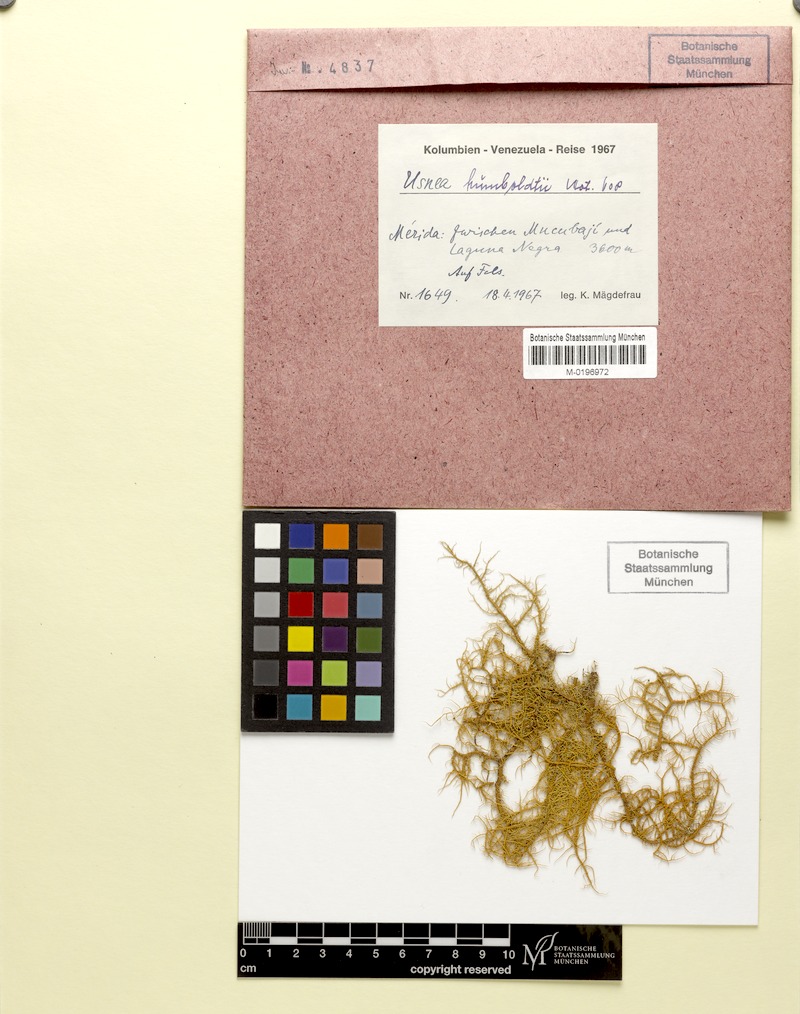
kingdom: Fungi
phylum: Ascomycota
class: Lecanoromycetes
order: Lecanorales
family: Parmeliaceae
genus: Usnea
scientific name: Usnea
